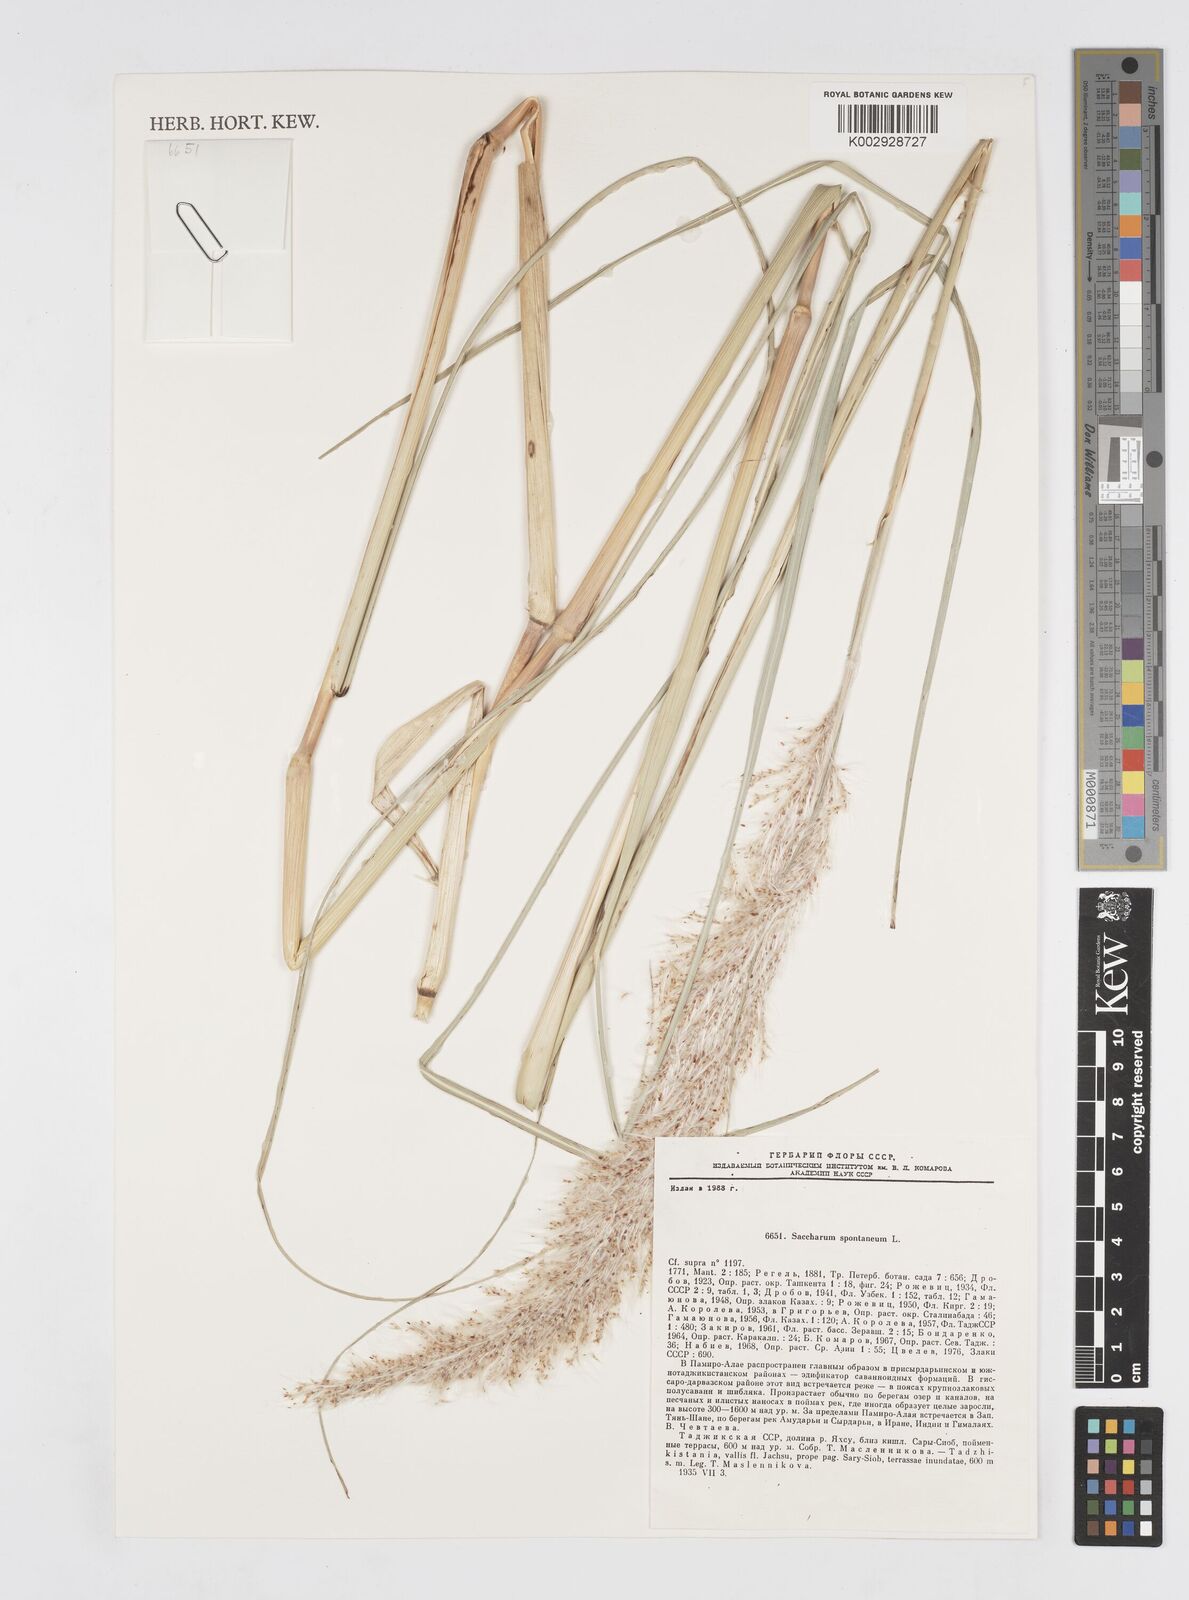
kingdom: Plantae
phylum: Tracheophyta
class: Liliopsida
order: Poales
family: Poaceae
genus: Saccharum
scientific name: Saccharum spontaneum
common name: Wild sugarcane
